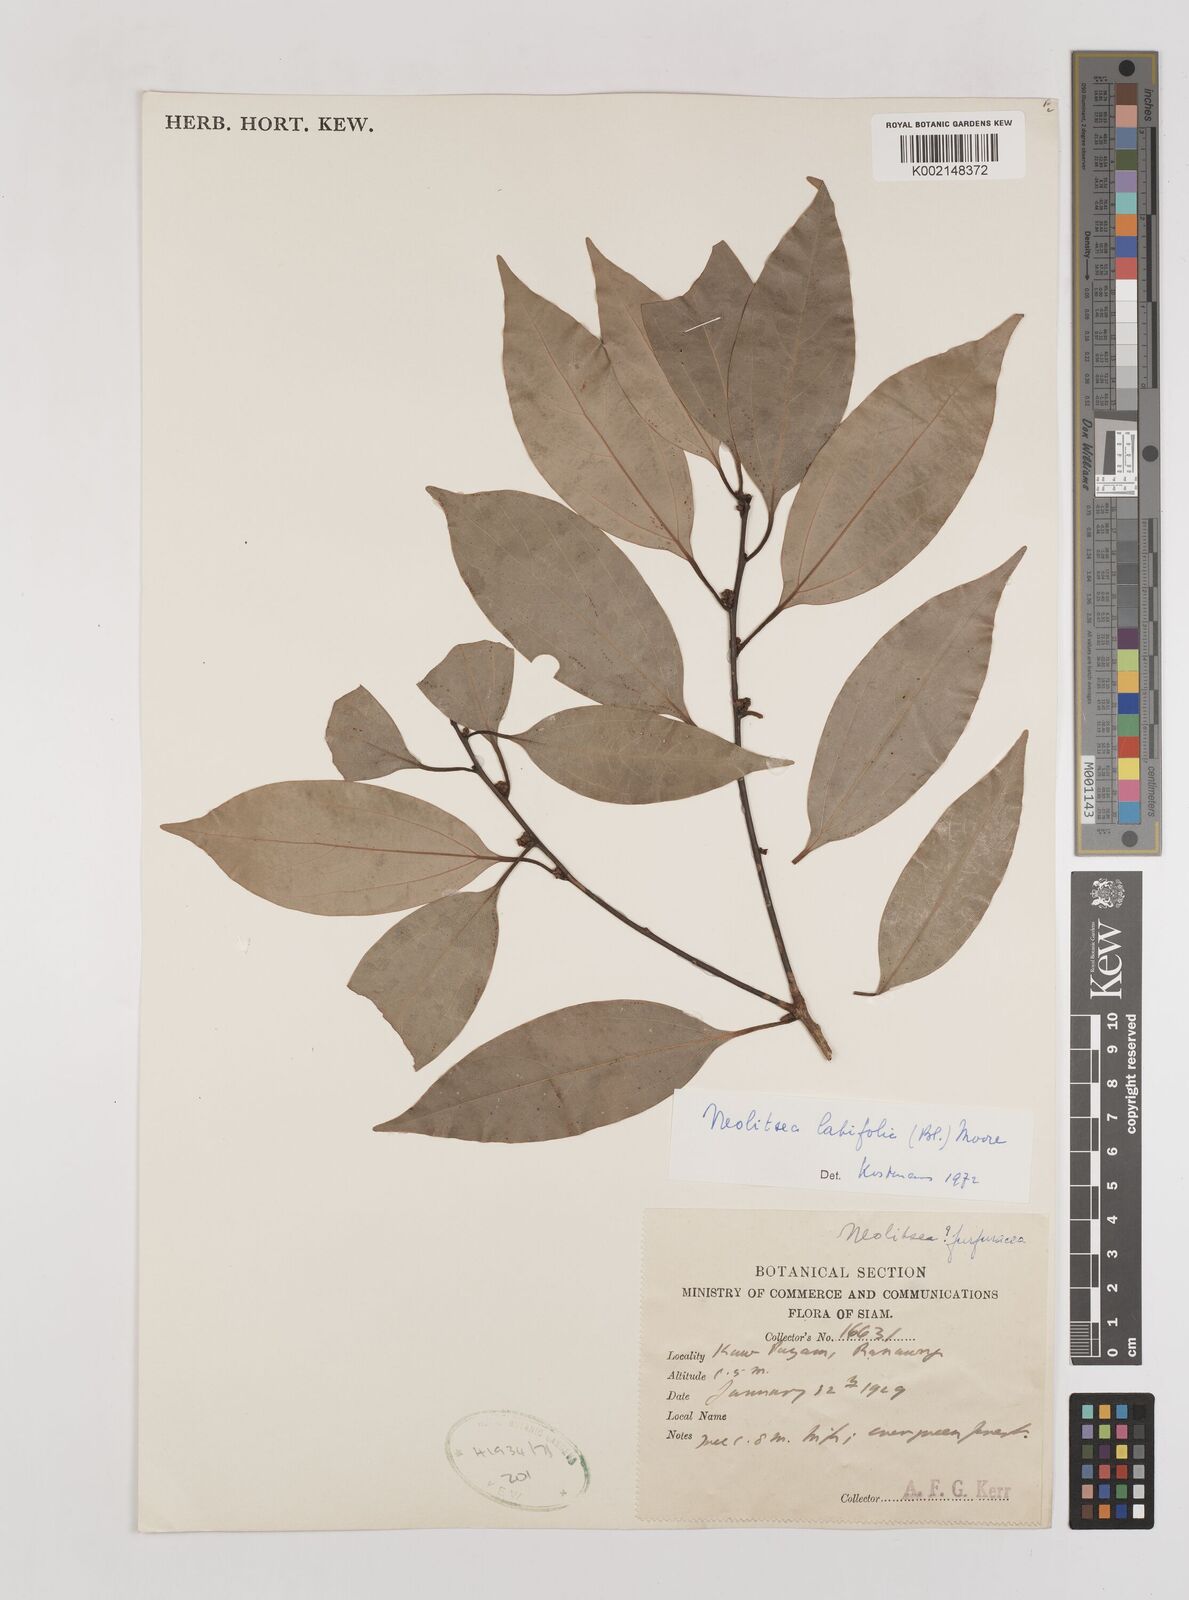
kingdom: Plantae
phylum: Tracheophyta
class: Magnoliopsida
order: Laurales
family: Lauraceae
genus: Neolitsea
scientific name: Neolitsea latifolia
